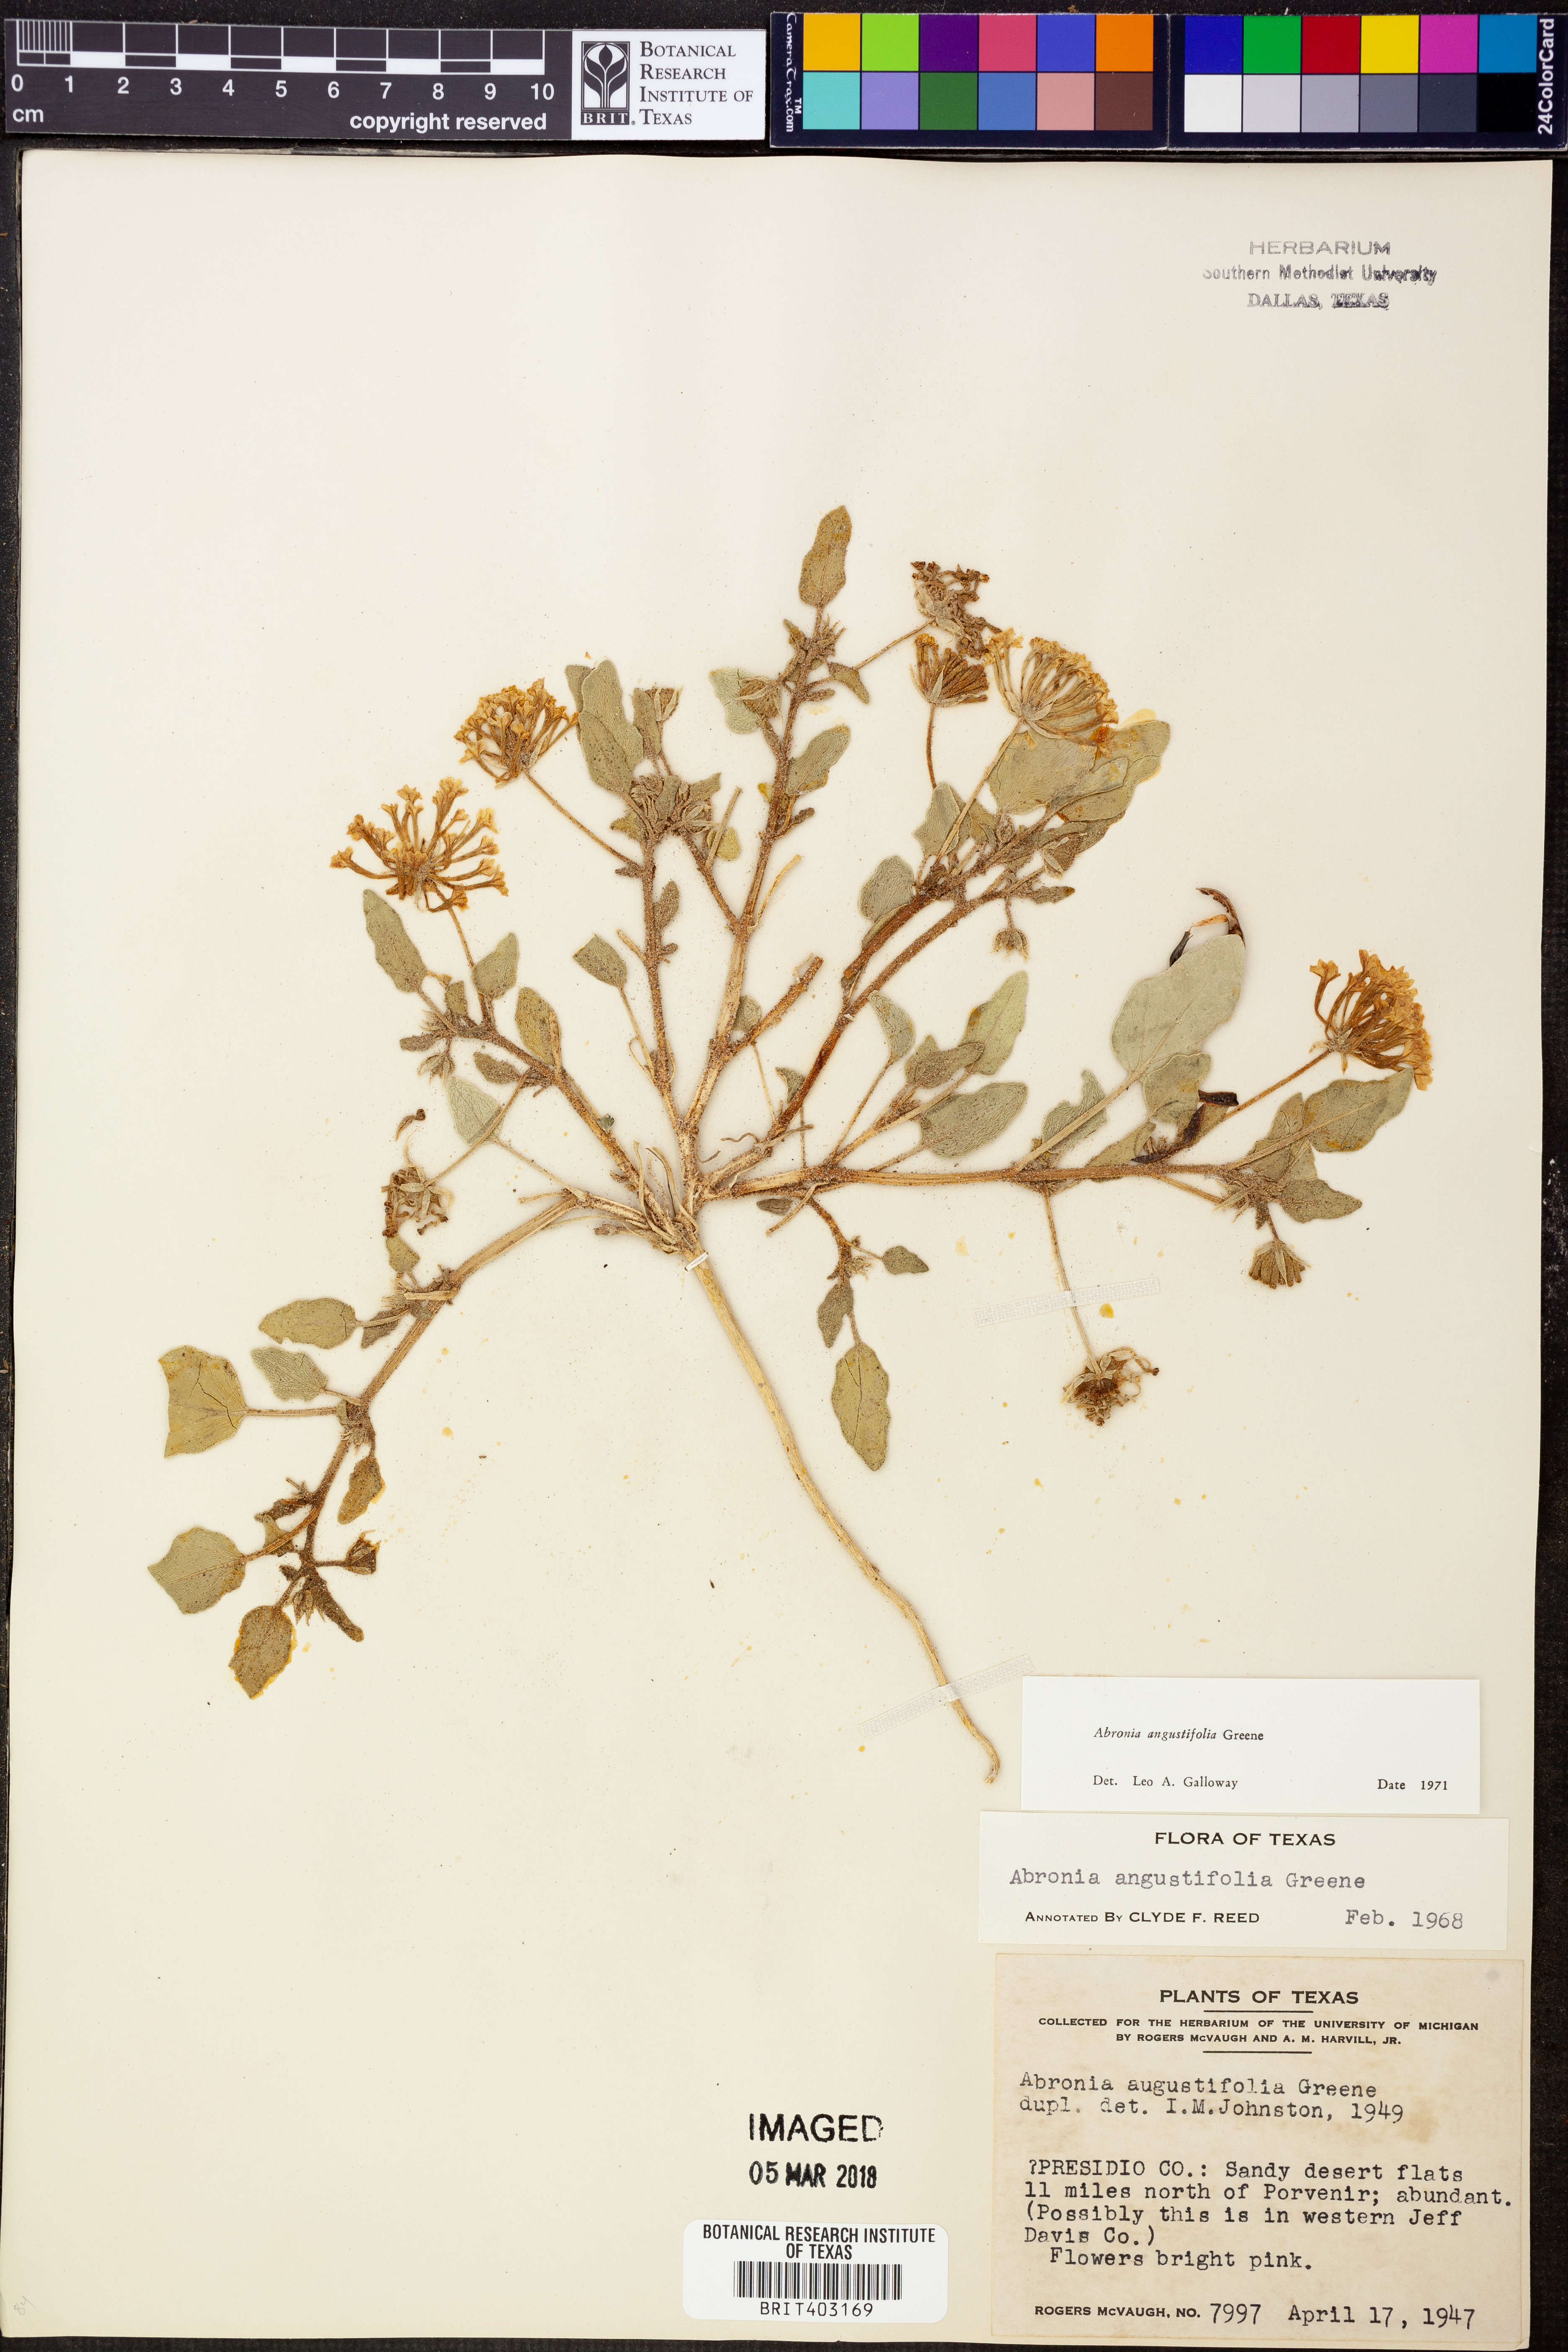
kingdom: Plantae
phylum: Tracheophyta
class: Magnoliopsida
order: Caryophyllales
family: Nyctaginaceae
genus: Abronia
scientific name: Abronia angustifolia
